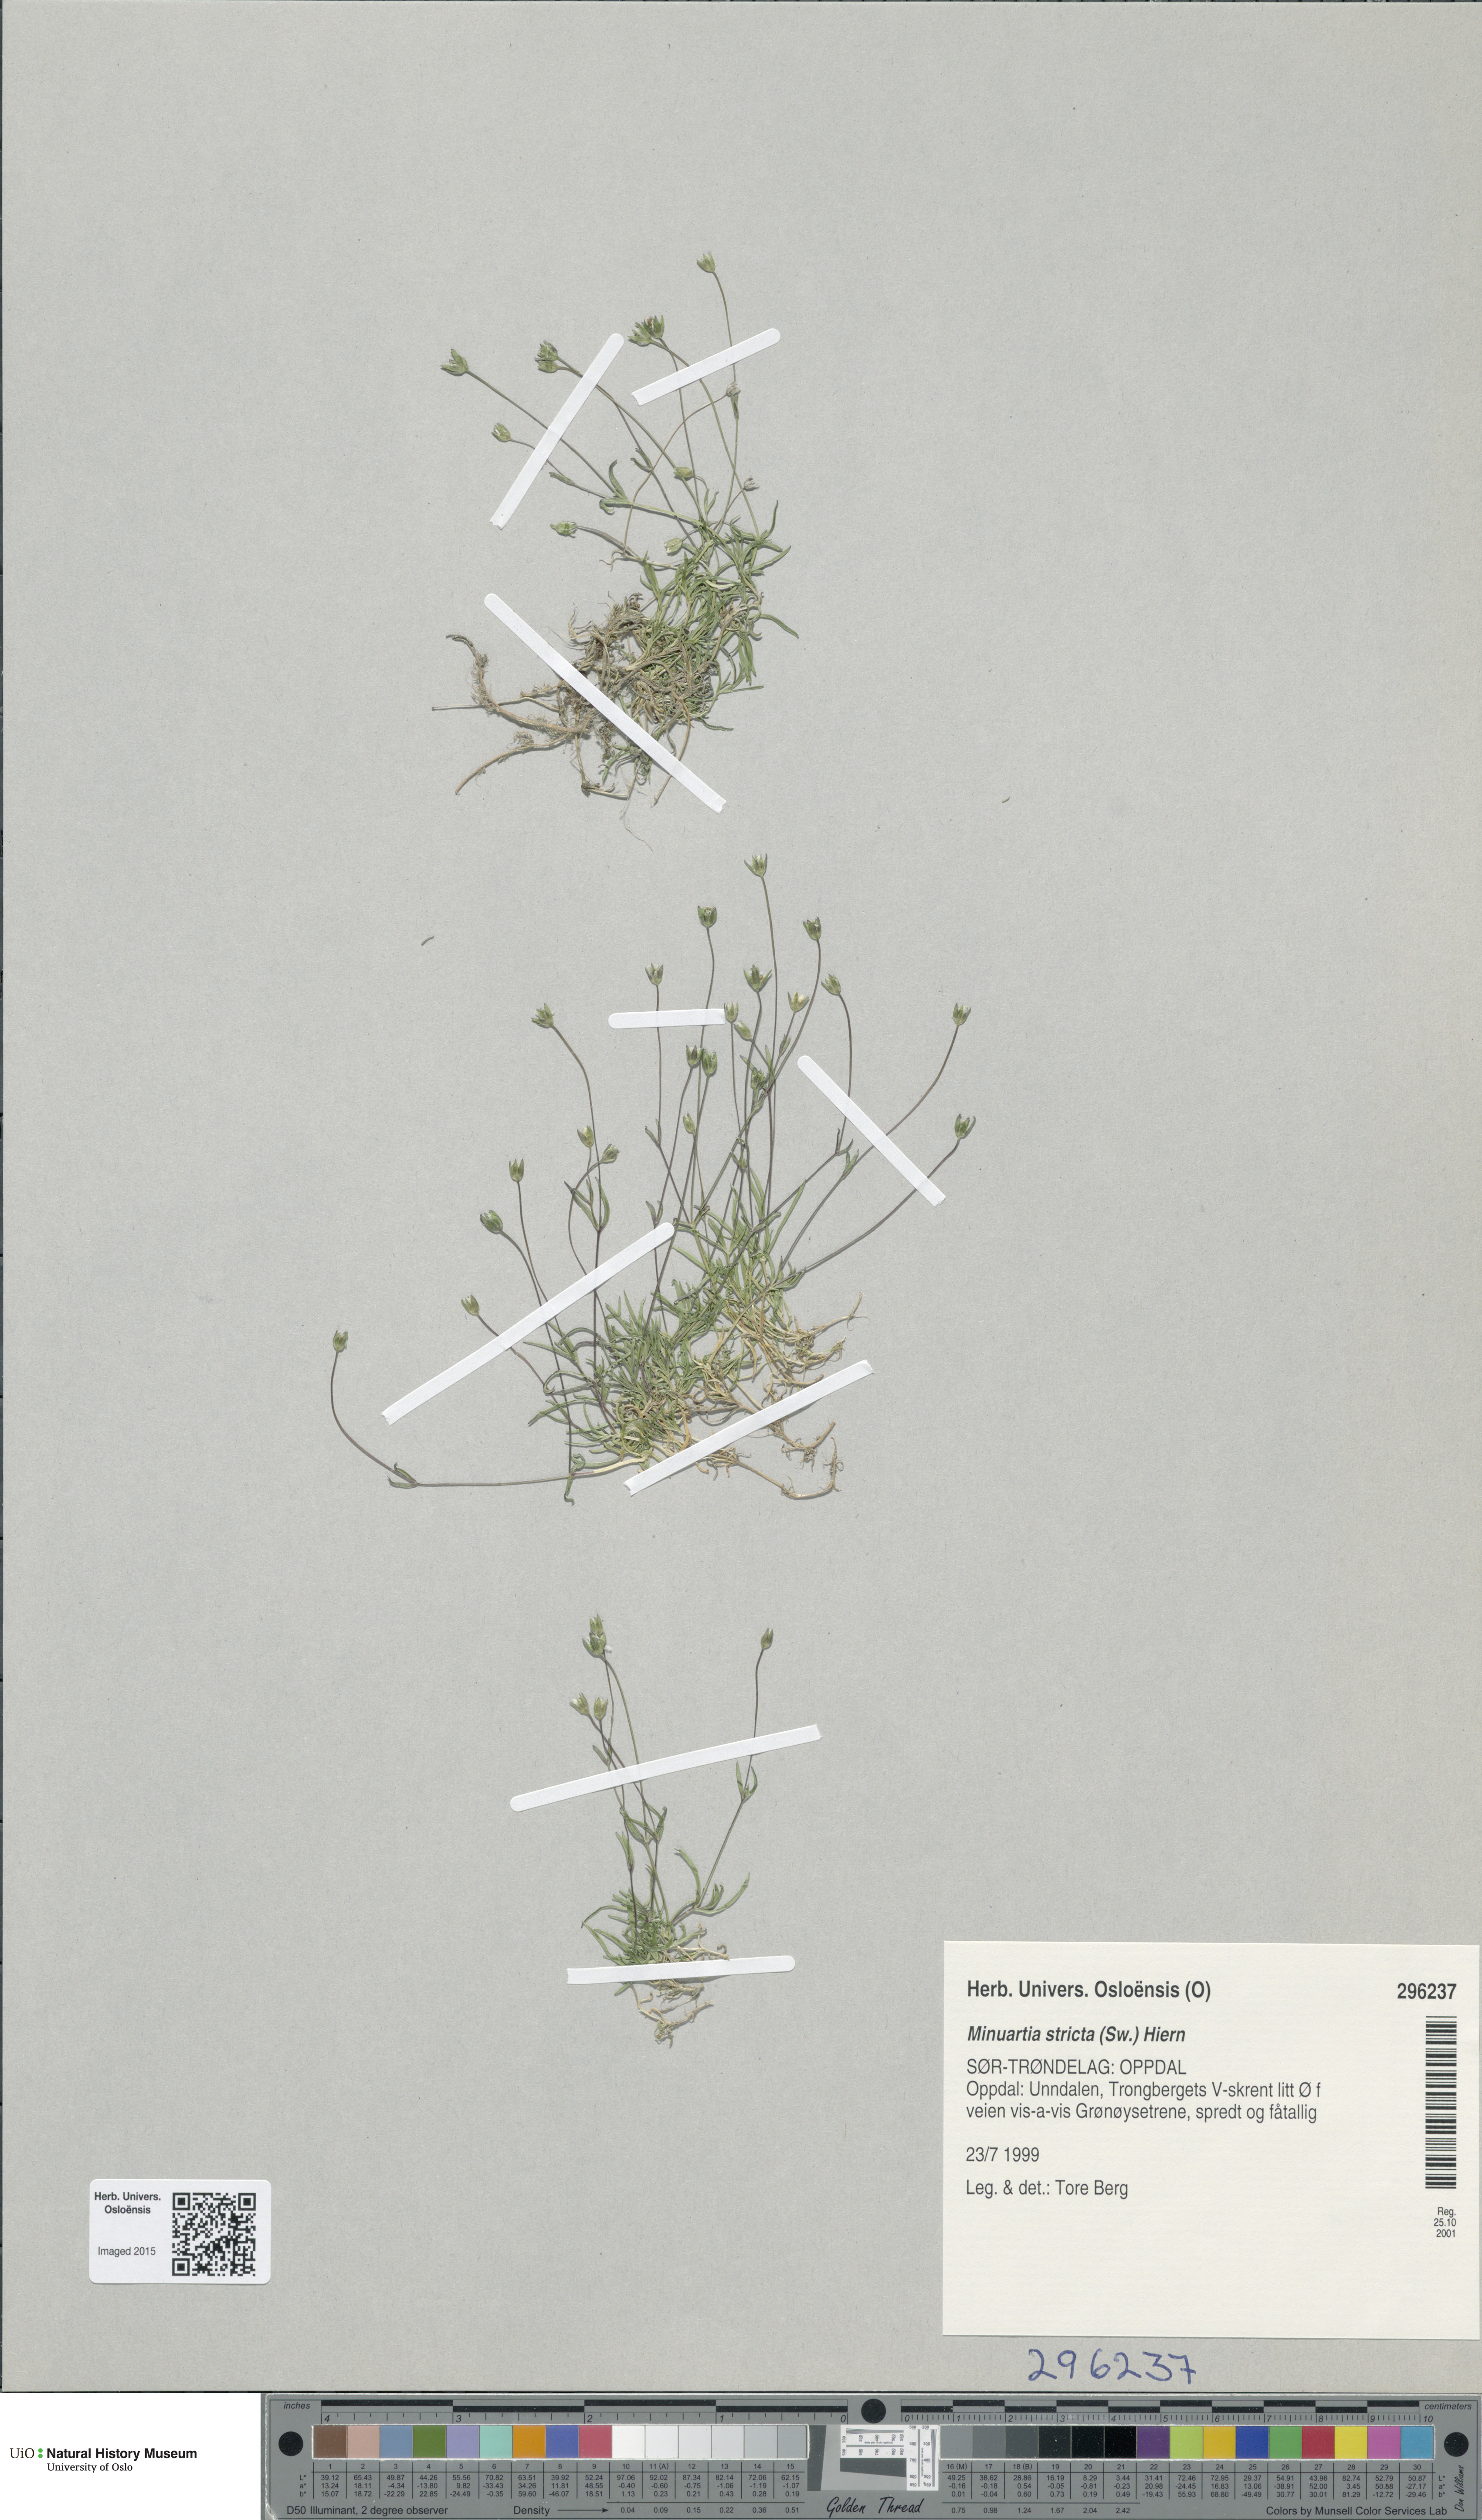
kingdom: Plantae
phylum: Tracheophyta
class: Magnoliopsida
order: Caryophyllales
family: Caryophyllaceae
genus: Sabulina
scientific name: Sabulina stricta
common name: Bog sandwort
